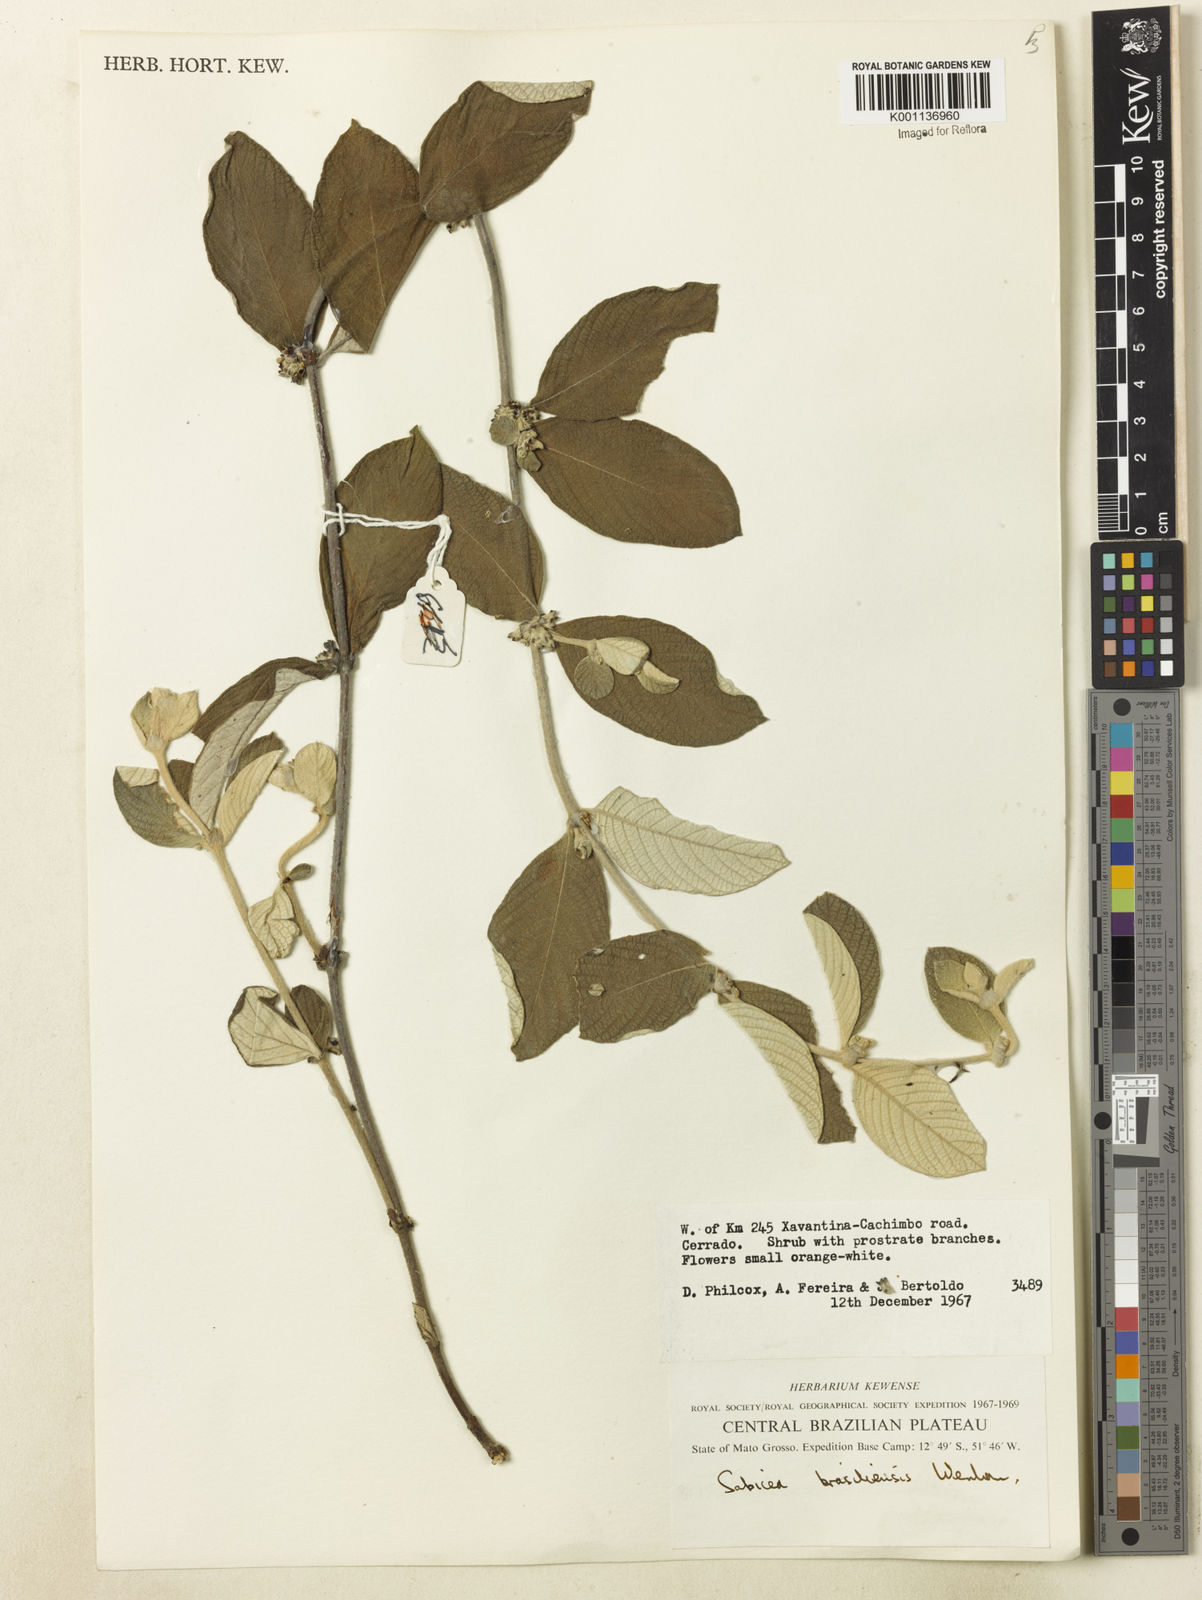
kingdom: Plantae
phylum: Tracheophyta
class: Magnoliopsida
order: Gentianales
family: Rubiaceae
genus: Sabicea
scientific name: Sabicea brasiliensis
